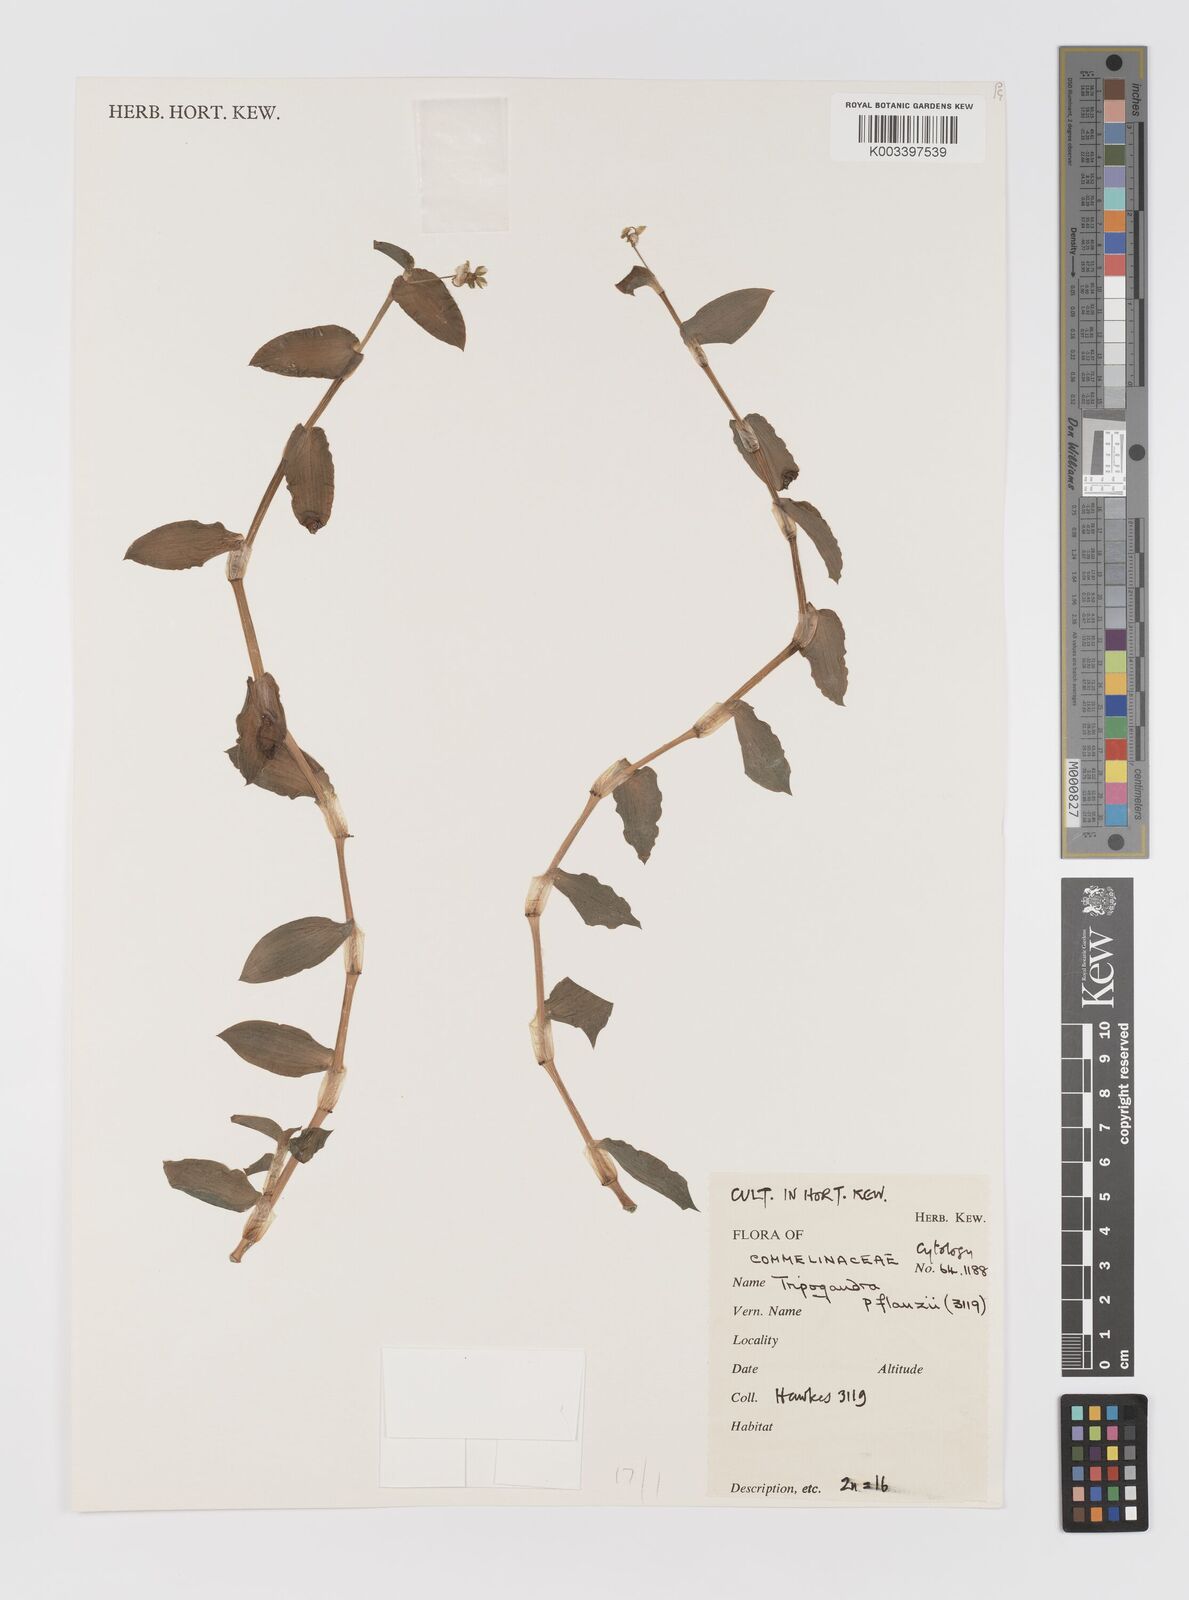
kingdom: Plantae
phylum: Tracheophyta
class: Liliopsida
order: Commelinales
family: Commelinaceae
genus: Callisia
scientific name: Callisia glandulosa
